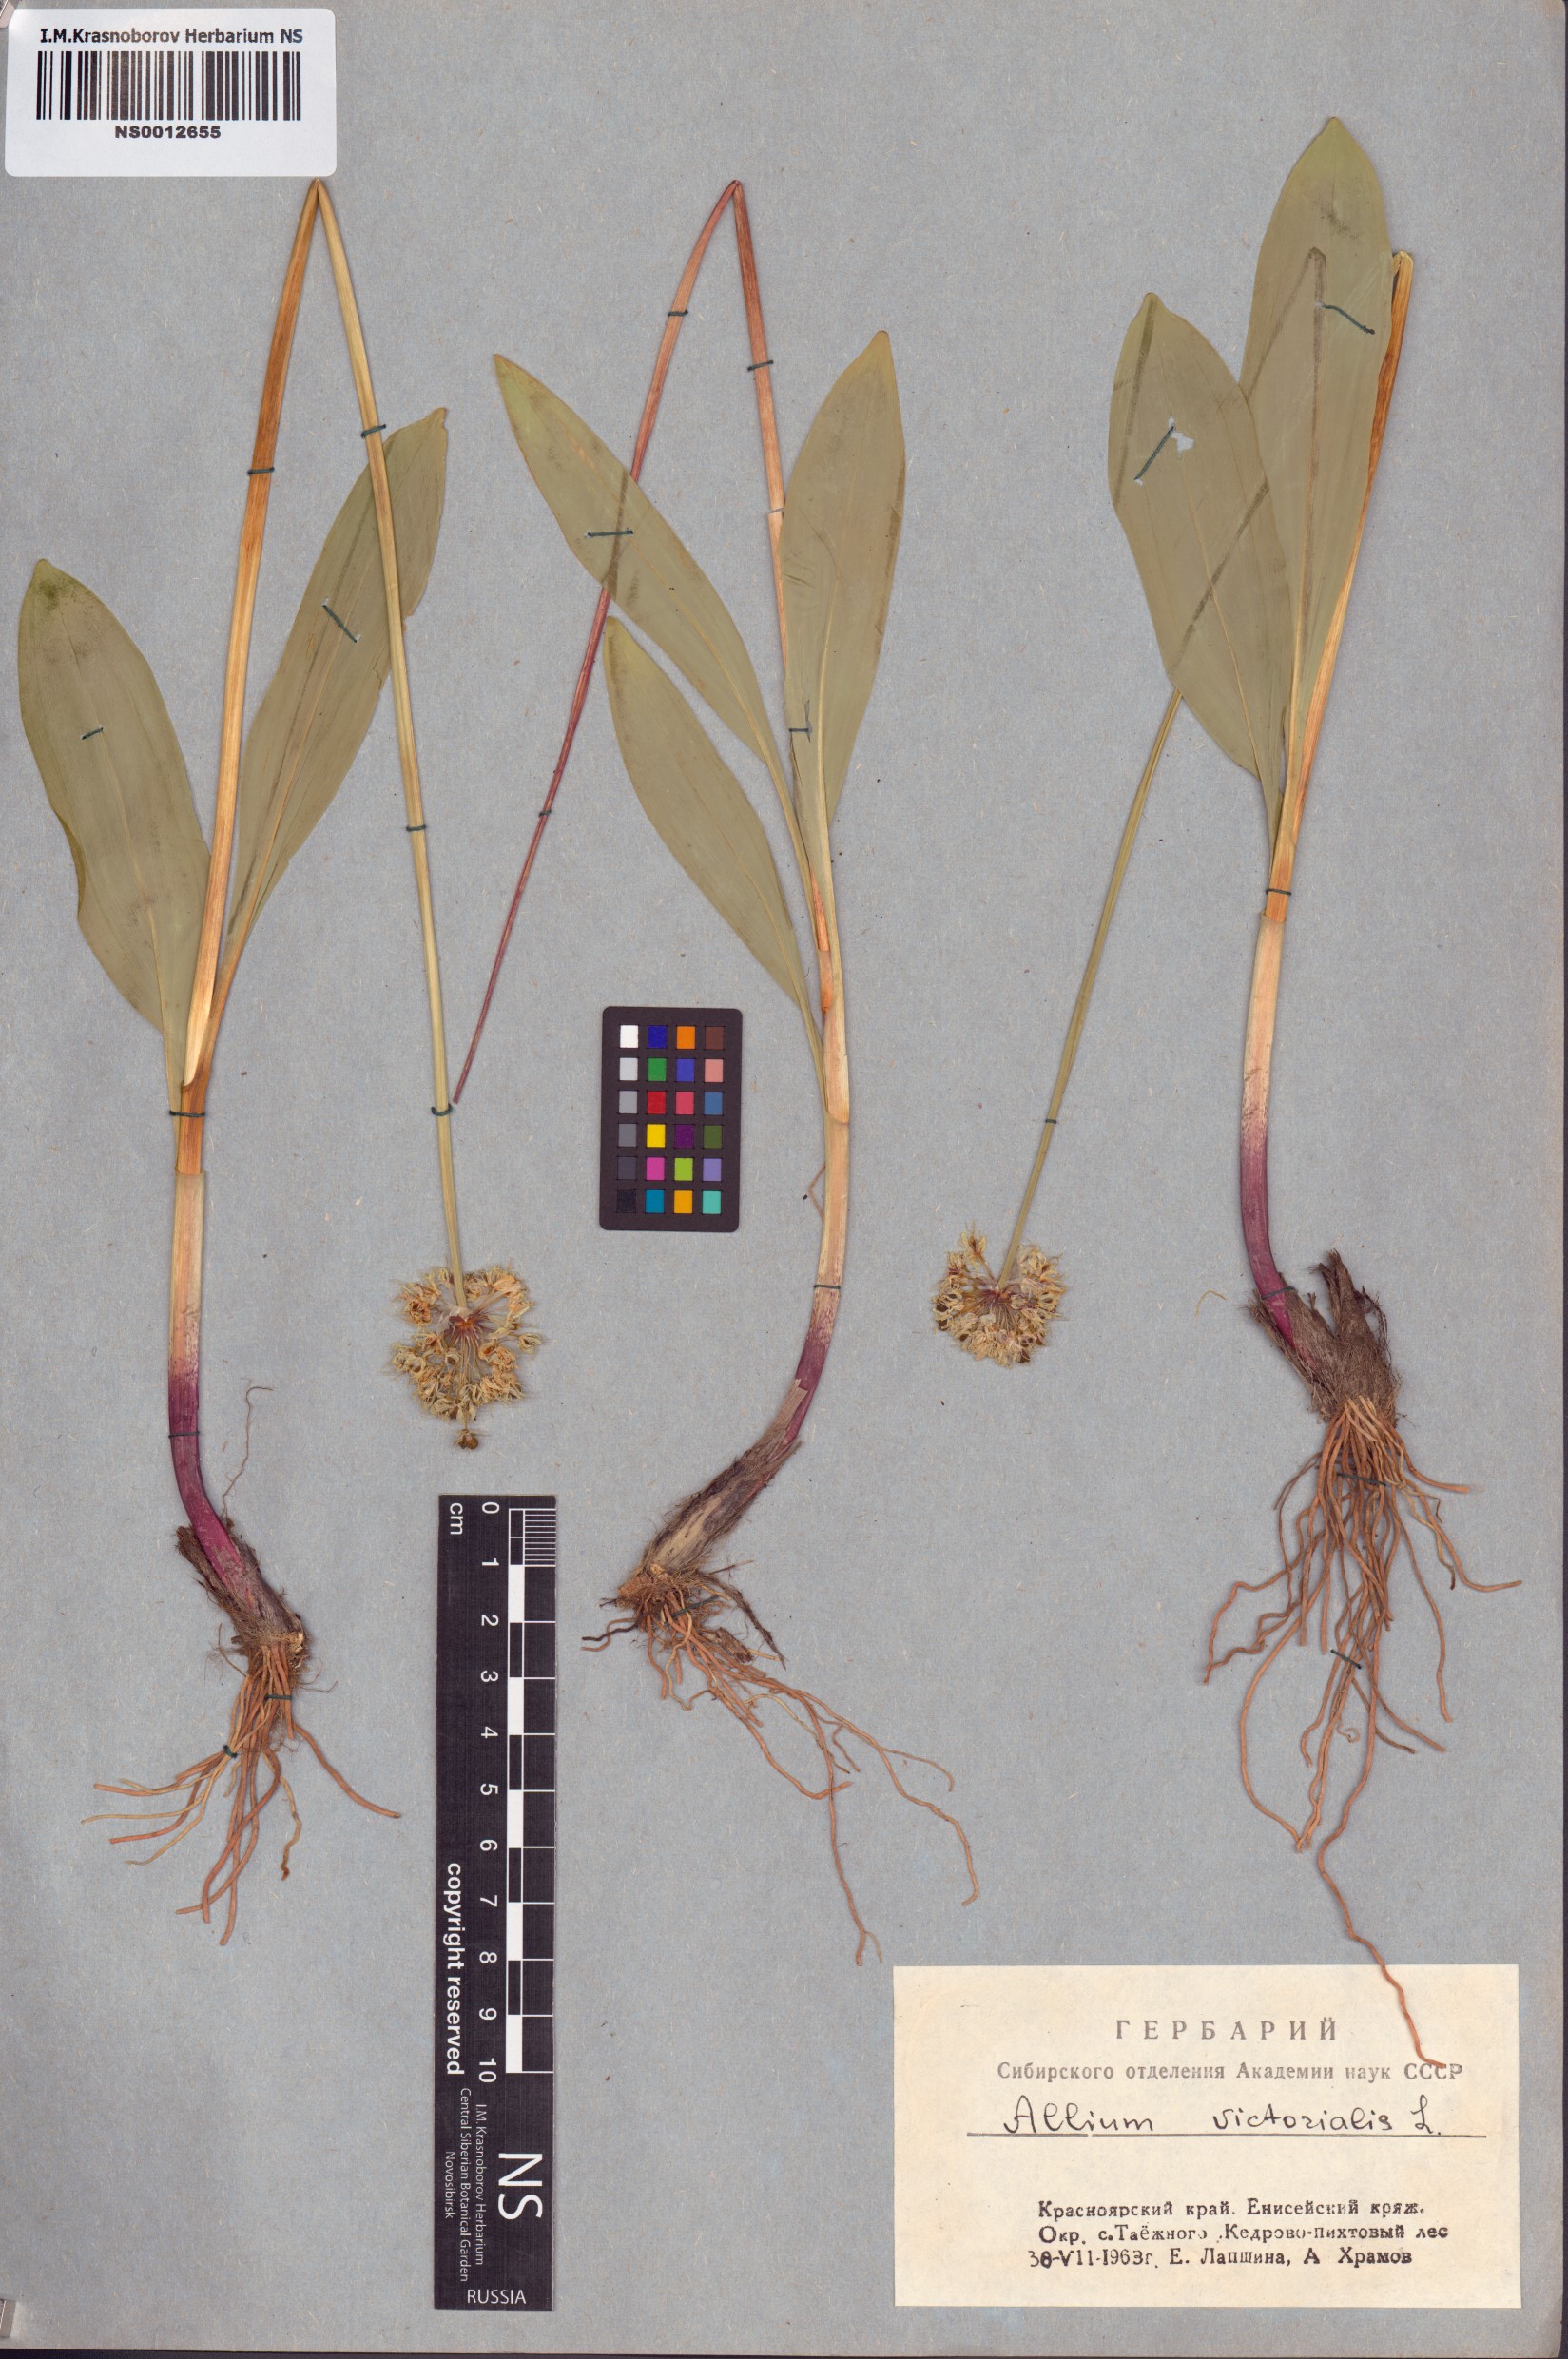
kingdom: Plantae
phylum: Tracheophyta
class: Liliopsida
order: Asparagales
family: Amaryllidaceae
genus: Allium
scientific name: Allium microdictyon
